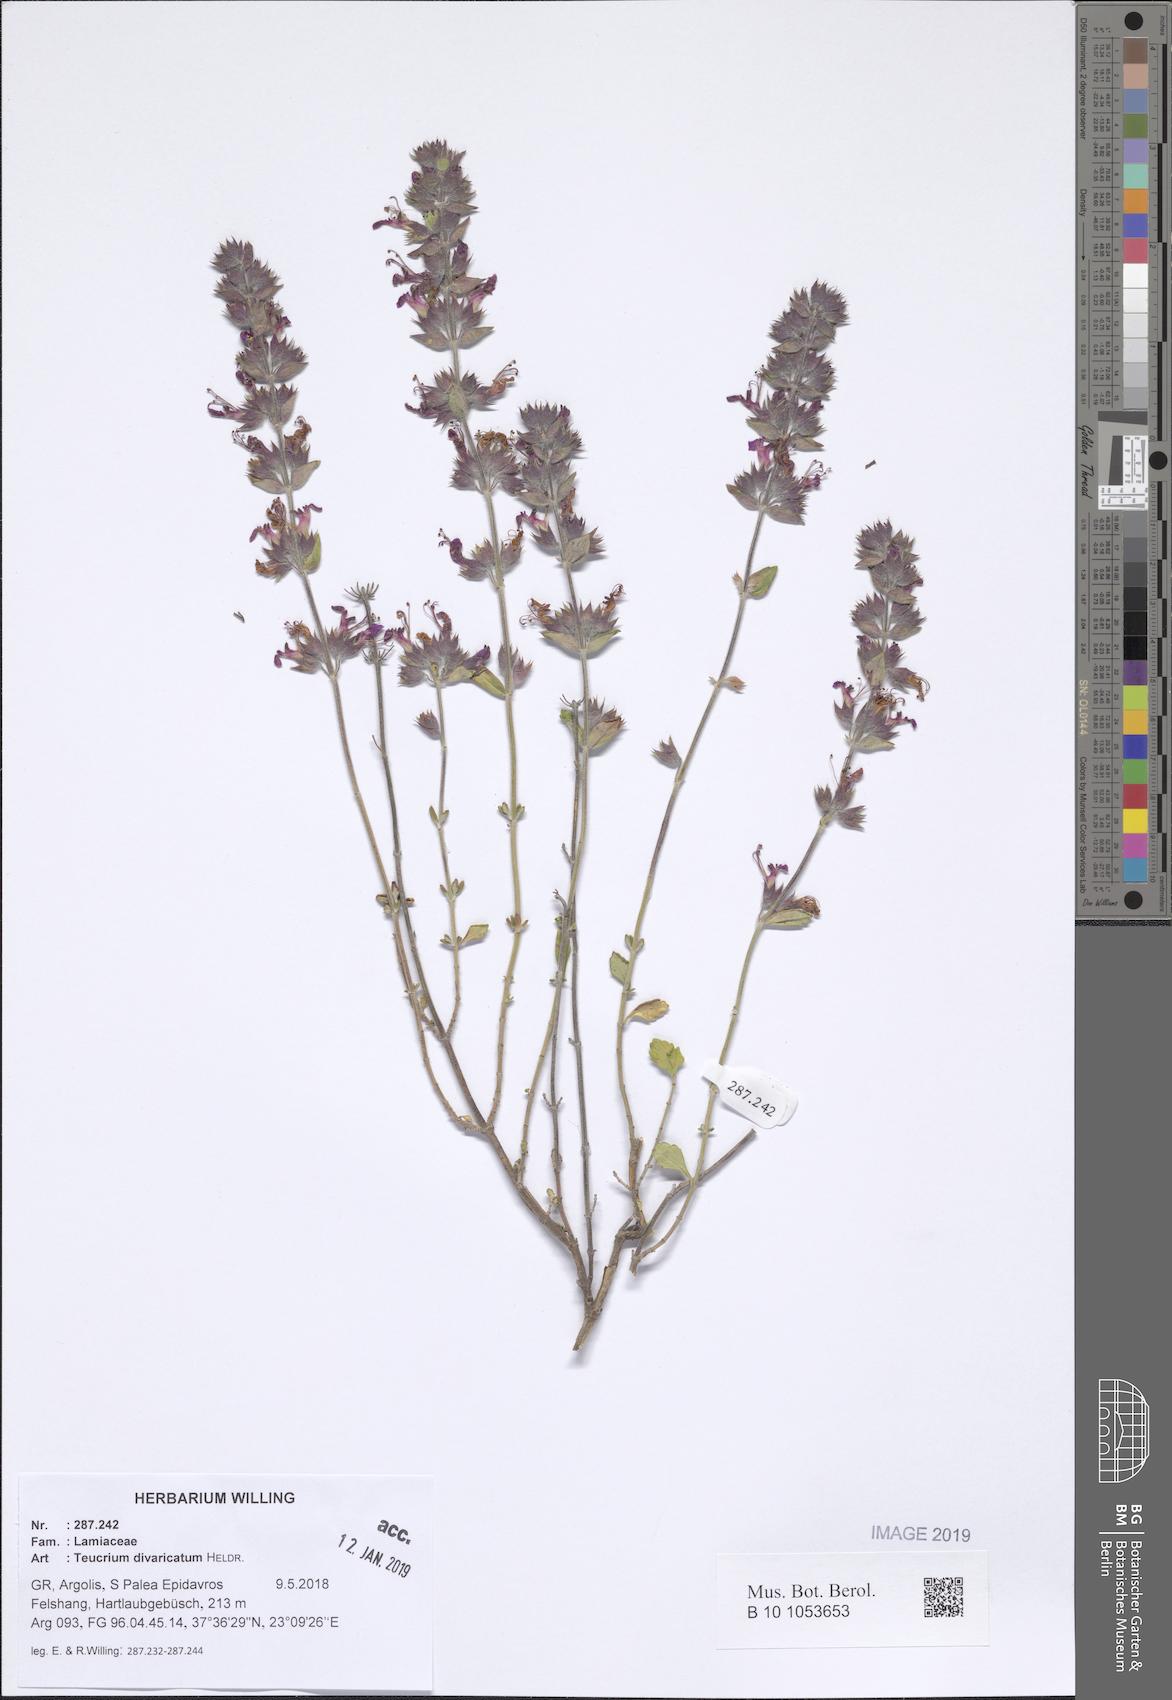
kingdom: Plantae
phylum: Tracheophyta
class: Magnoliopsida
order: Lamiales
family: Lamiaceae
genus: Teucrium
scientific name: Teucrium divaricatum
